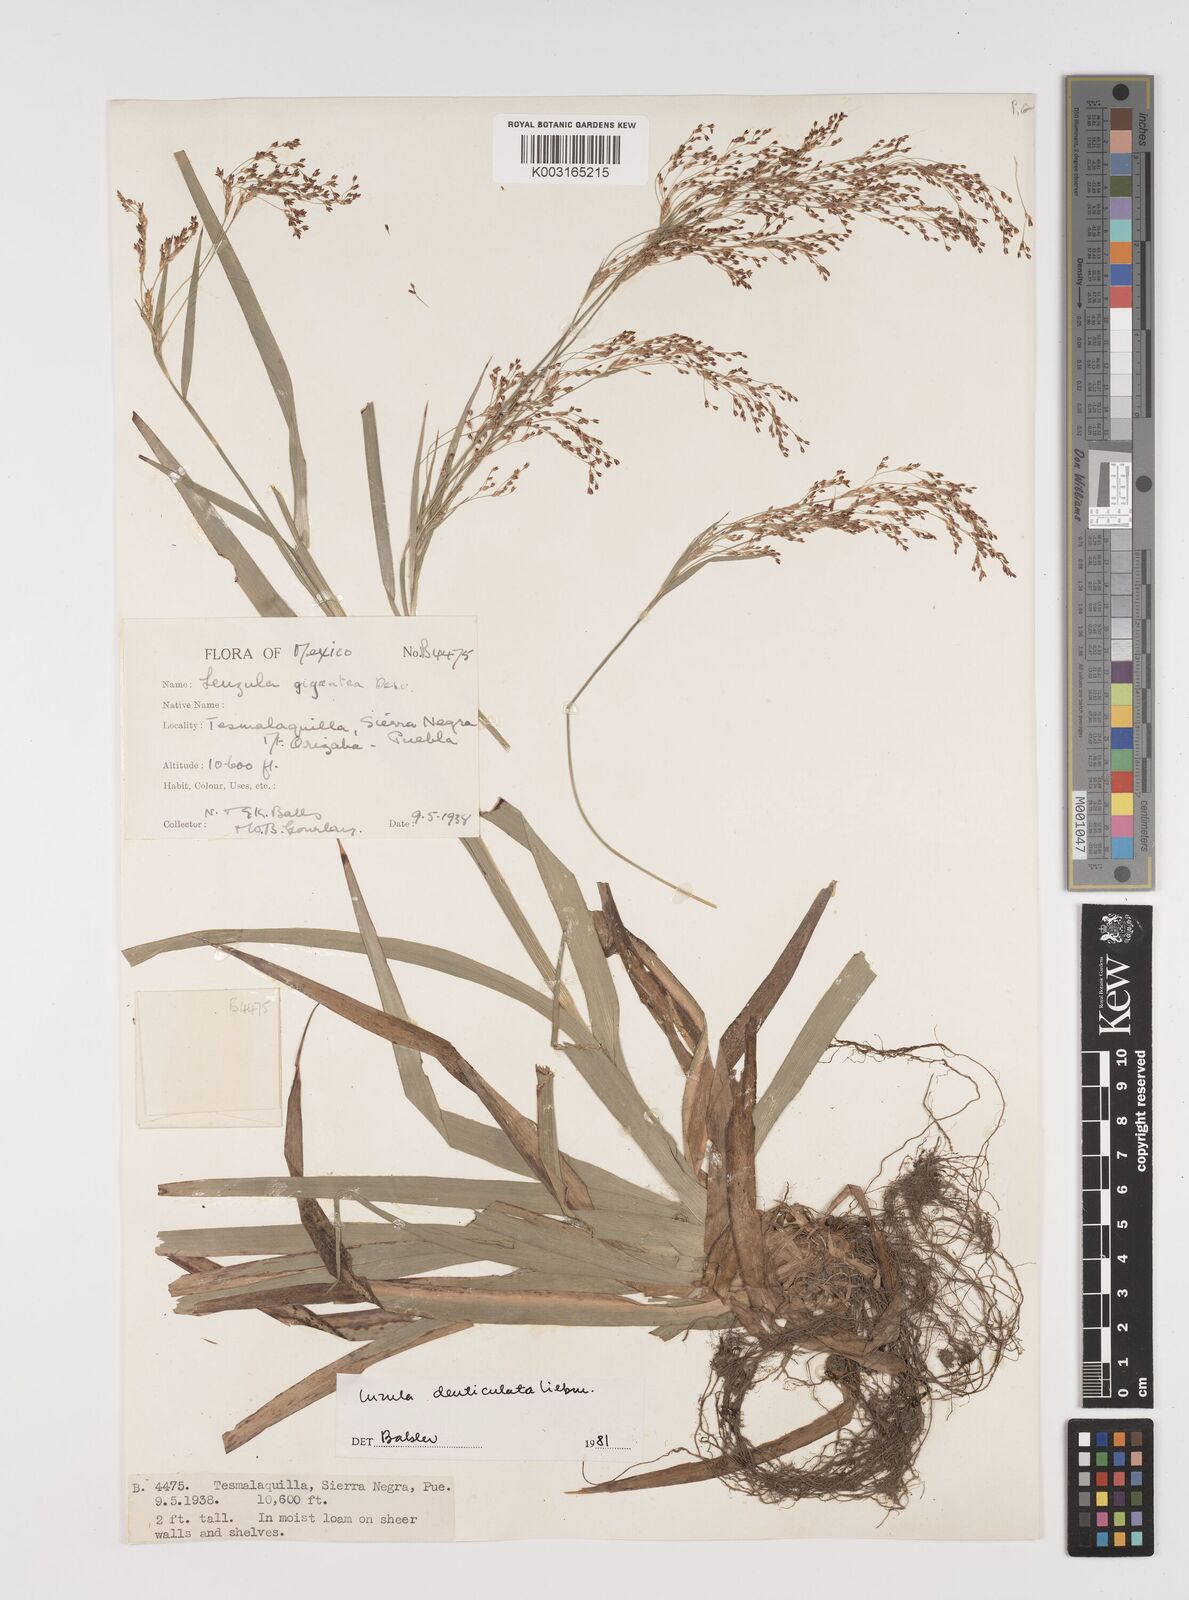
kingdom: Plantae
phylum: Tracheophyta
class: Liliopsida
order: Poales
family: Juncaceae
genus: Luzula
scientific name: Luzula gigantea
